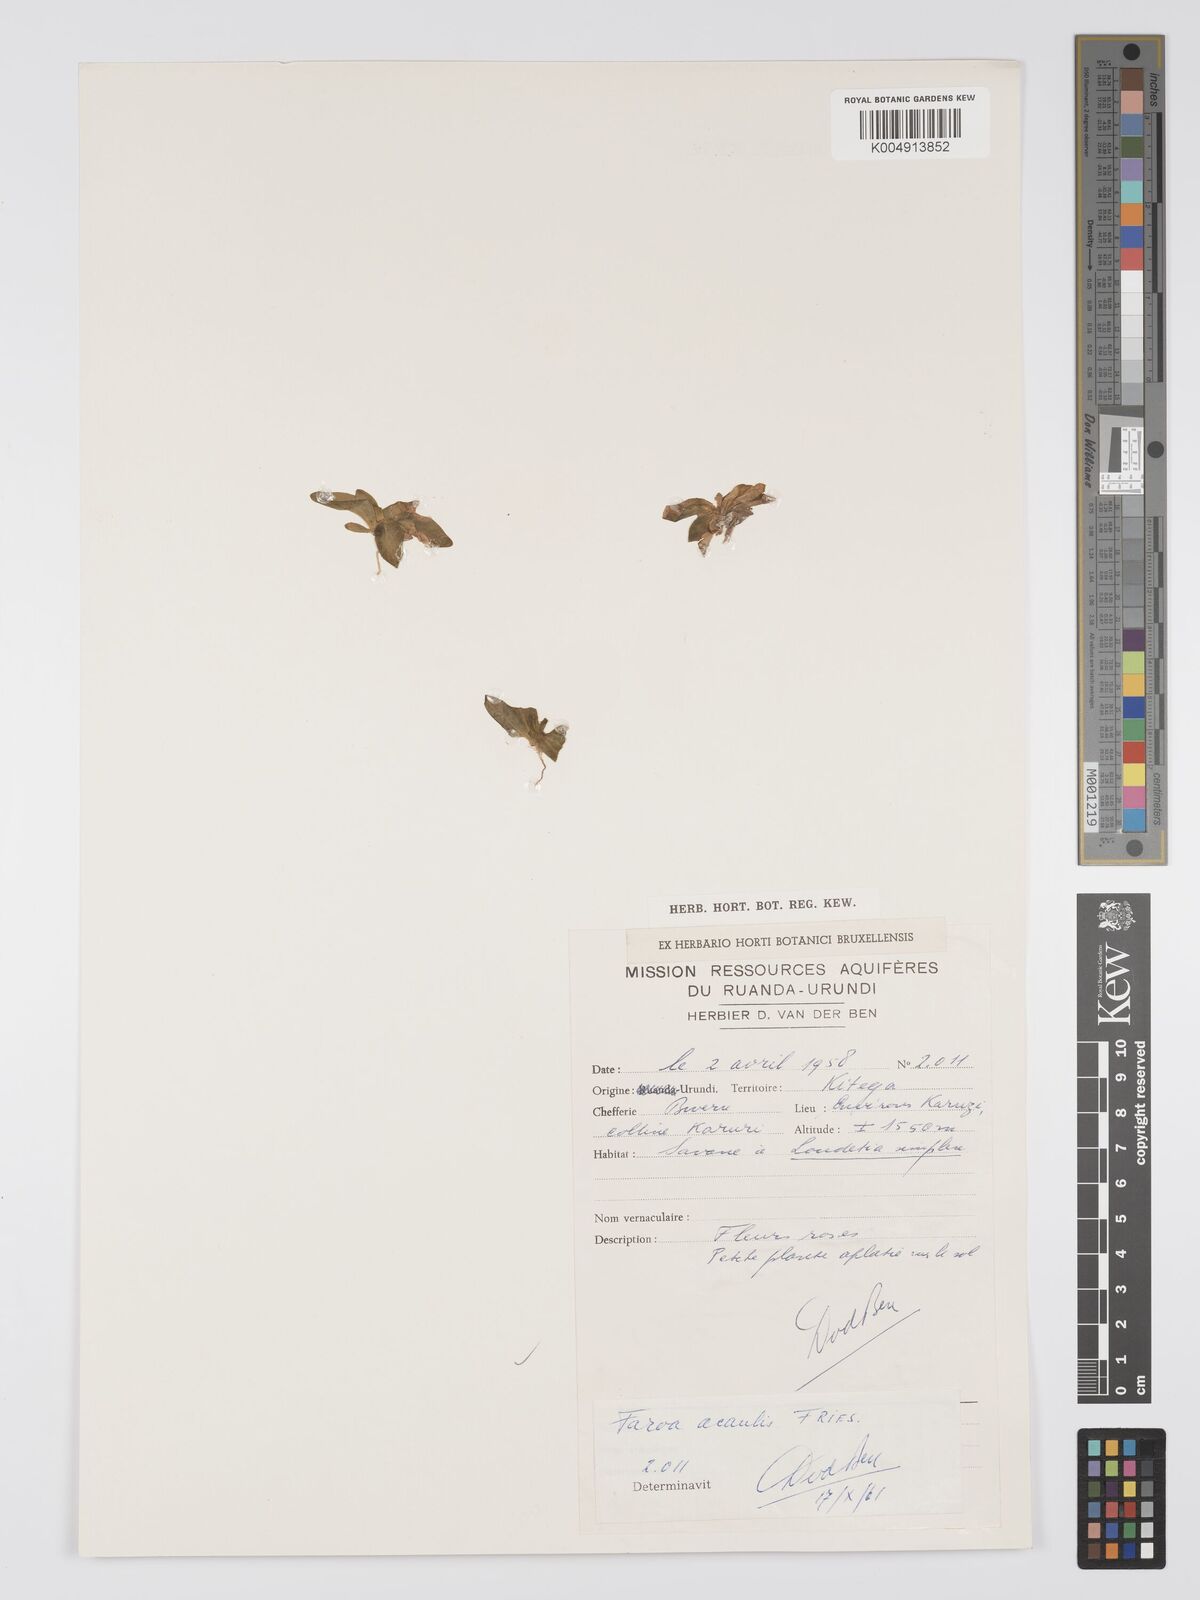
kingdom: Plantae
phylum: Tracheophyta
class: Magnoliopsida
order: Gentianales
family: Gentianaceae
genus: Faroa
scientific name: Faroa acaulis
